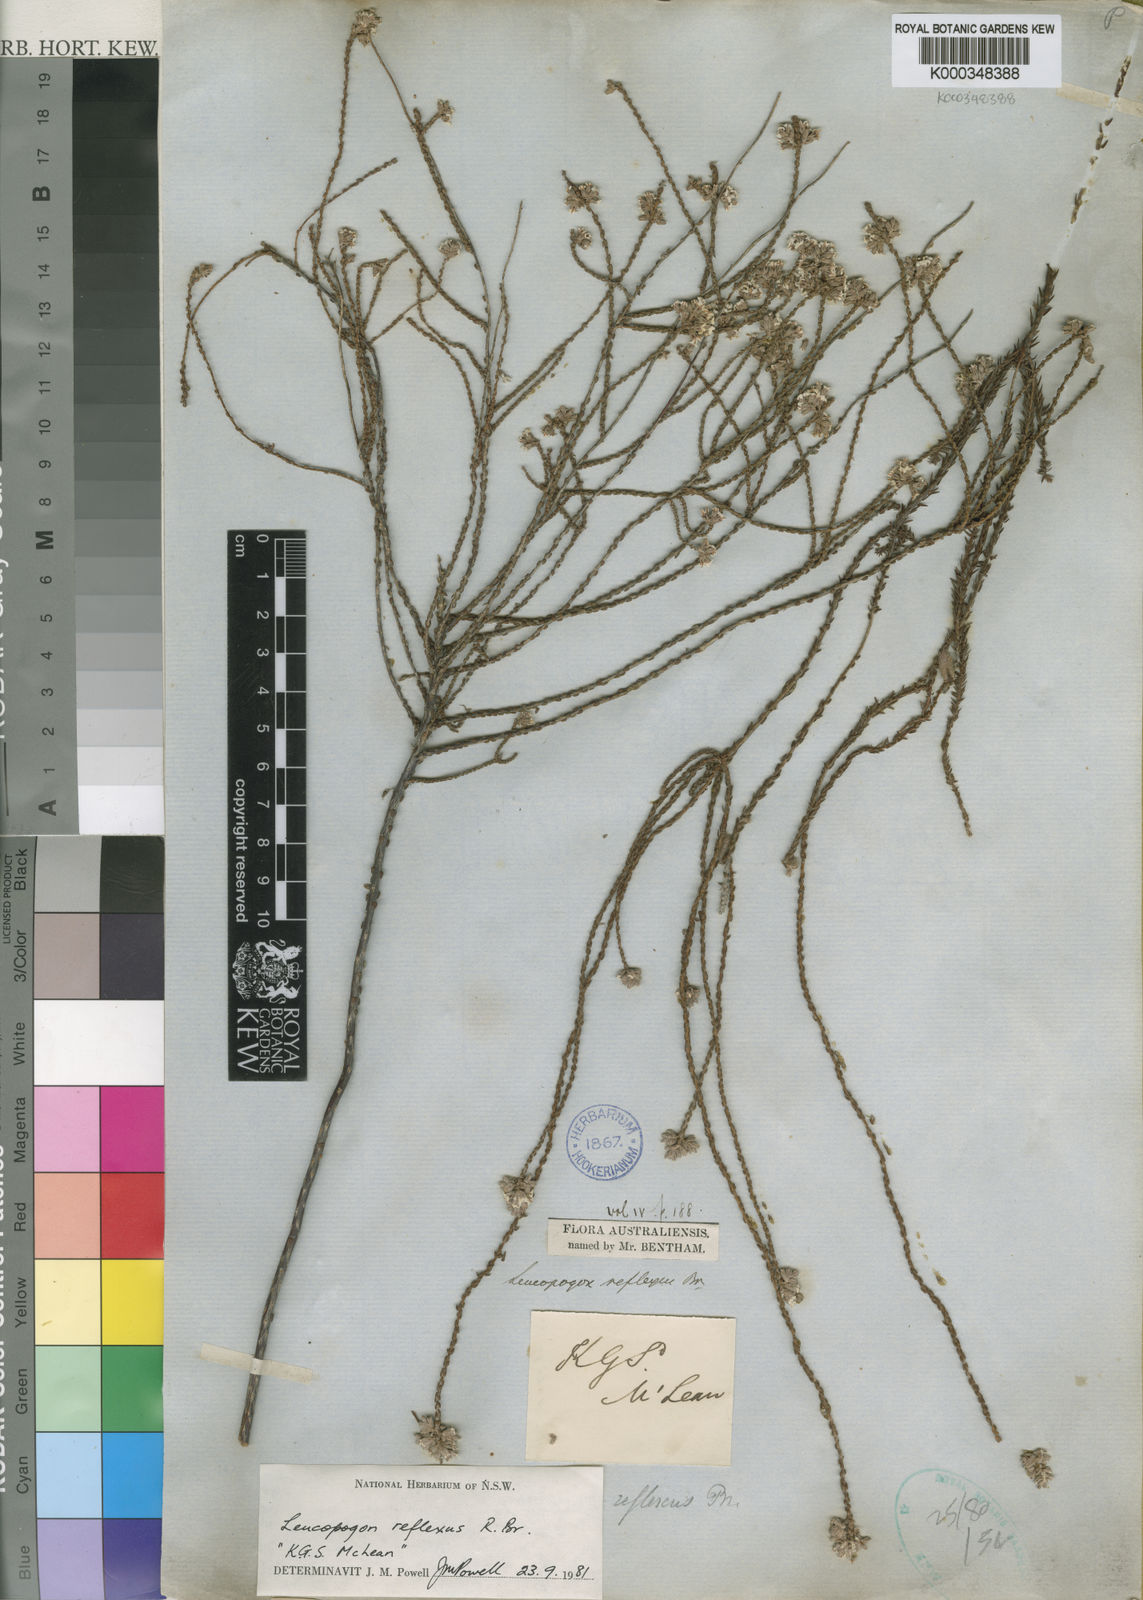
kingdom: Plantae
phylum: Tracheophyta
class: Magnoliopsida
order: Ericales
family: Ericaceae
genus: Leucopogon
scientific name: Leucopogon reflexus
